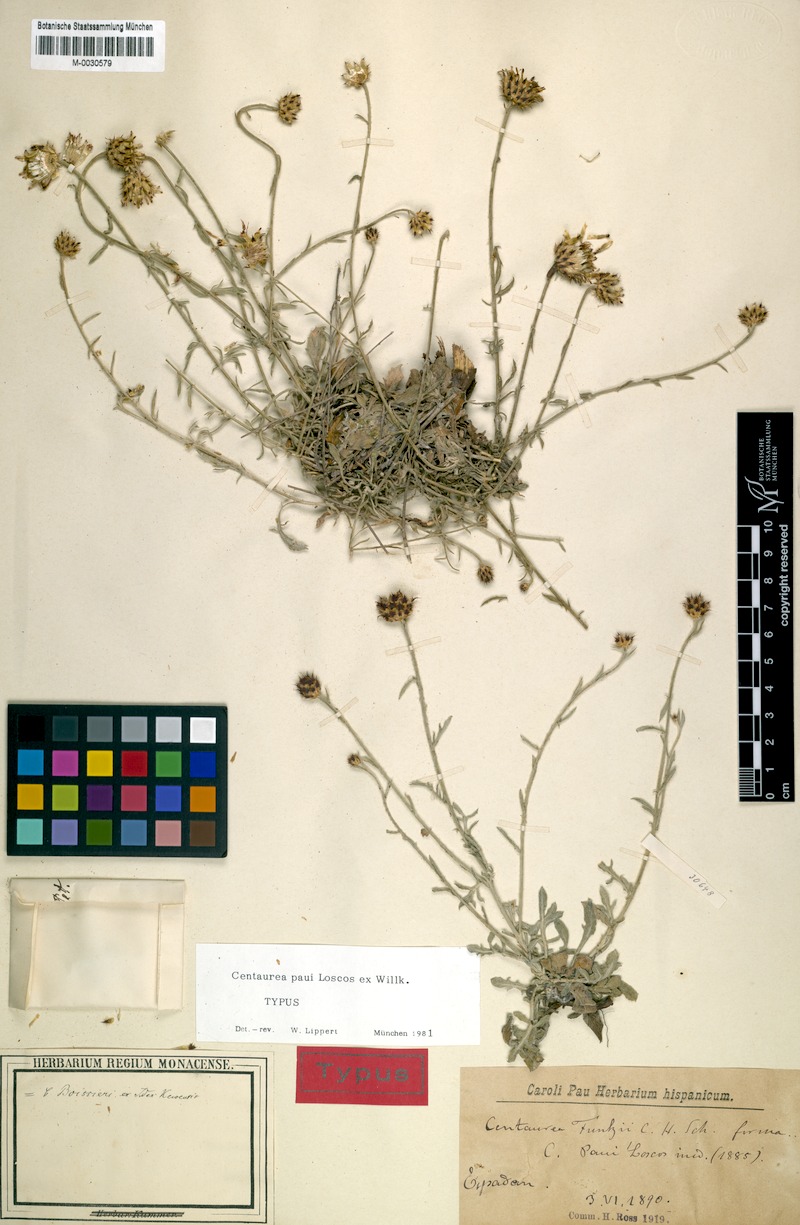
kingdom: Plantae
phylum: Tracheophyta
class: Magnoliopsida
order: Asterales
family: Asteraceae
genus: Centaurea
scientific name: Centaurea paui
